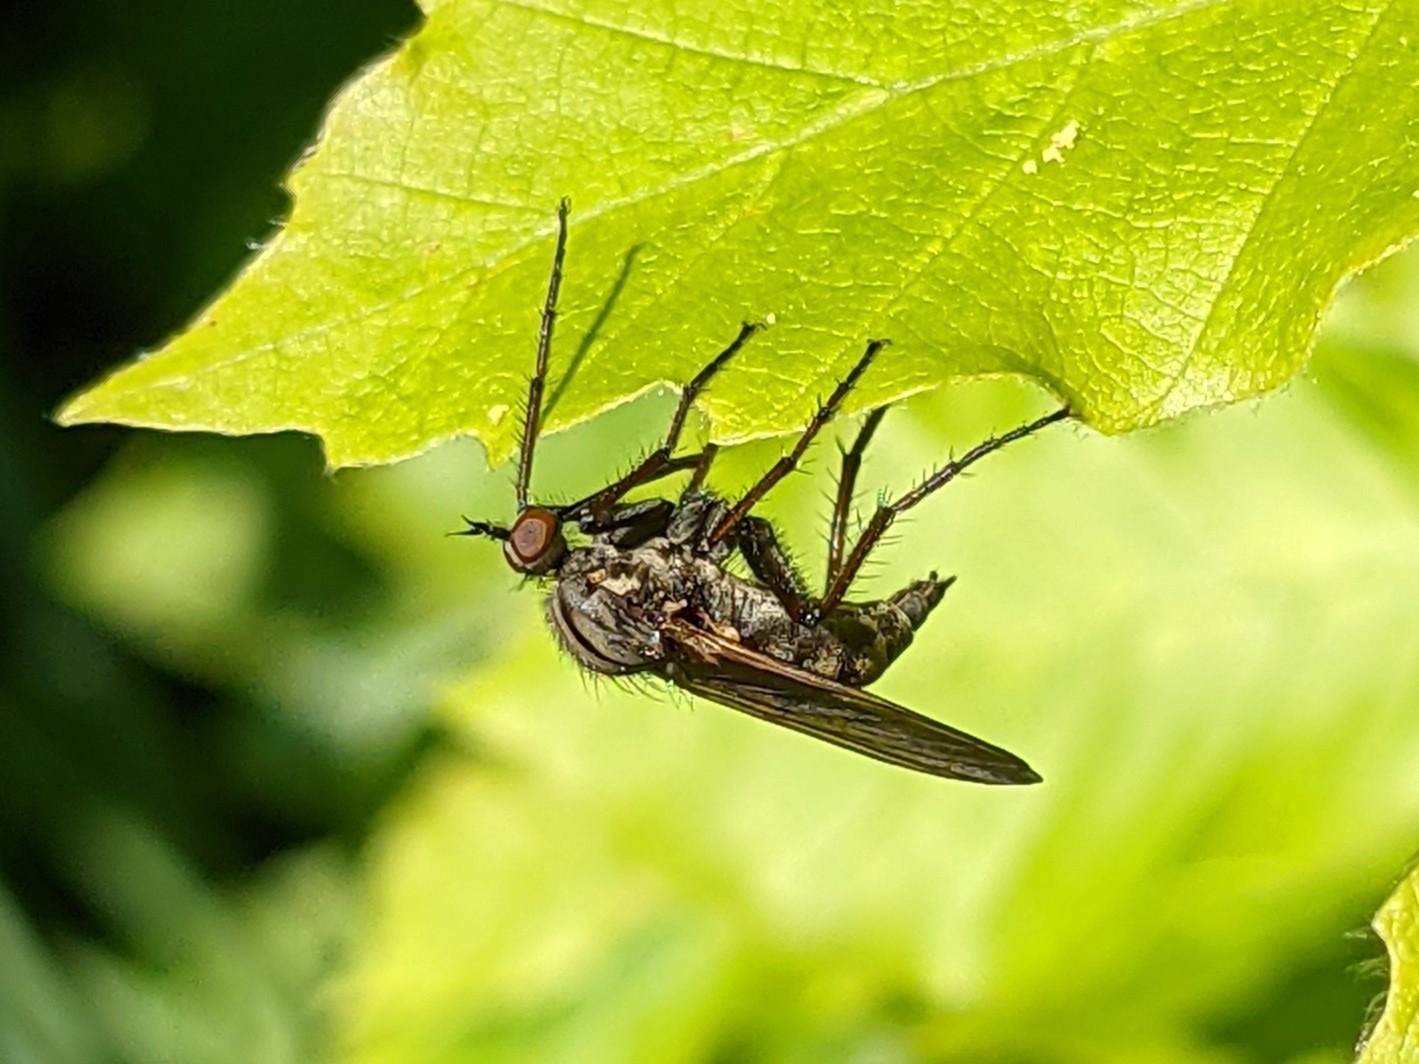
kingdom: Animalia
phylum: Arthropoda
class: Insecta
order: Diptera
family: Empididae
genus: Empis
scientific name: Empis tessellata
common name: Stor danseflue
